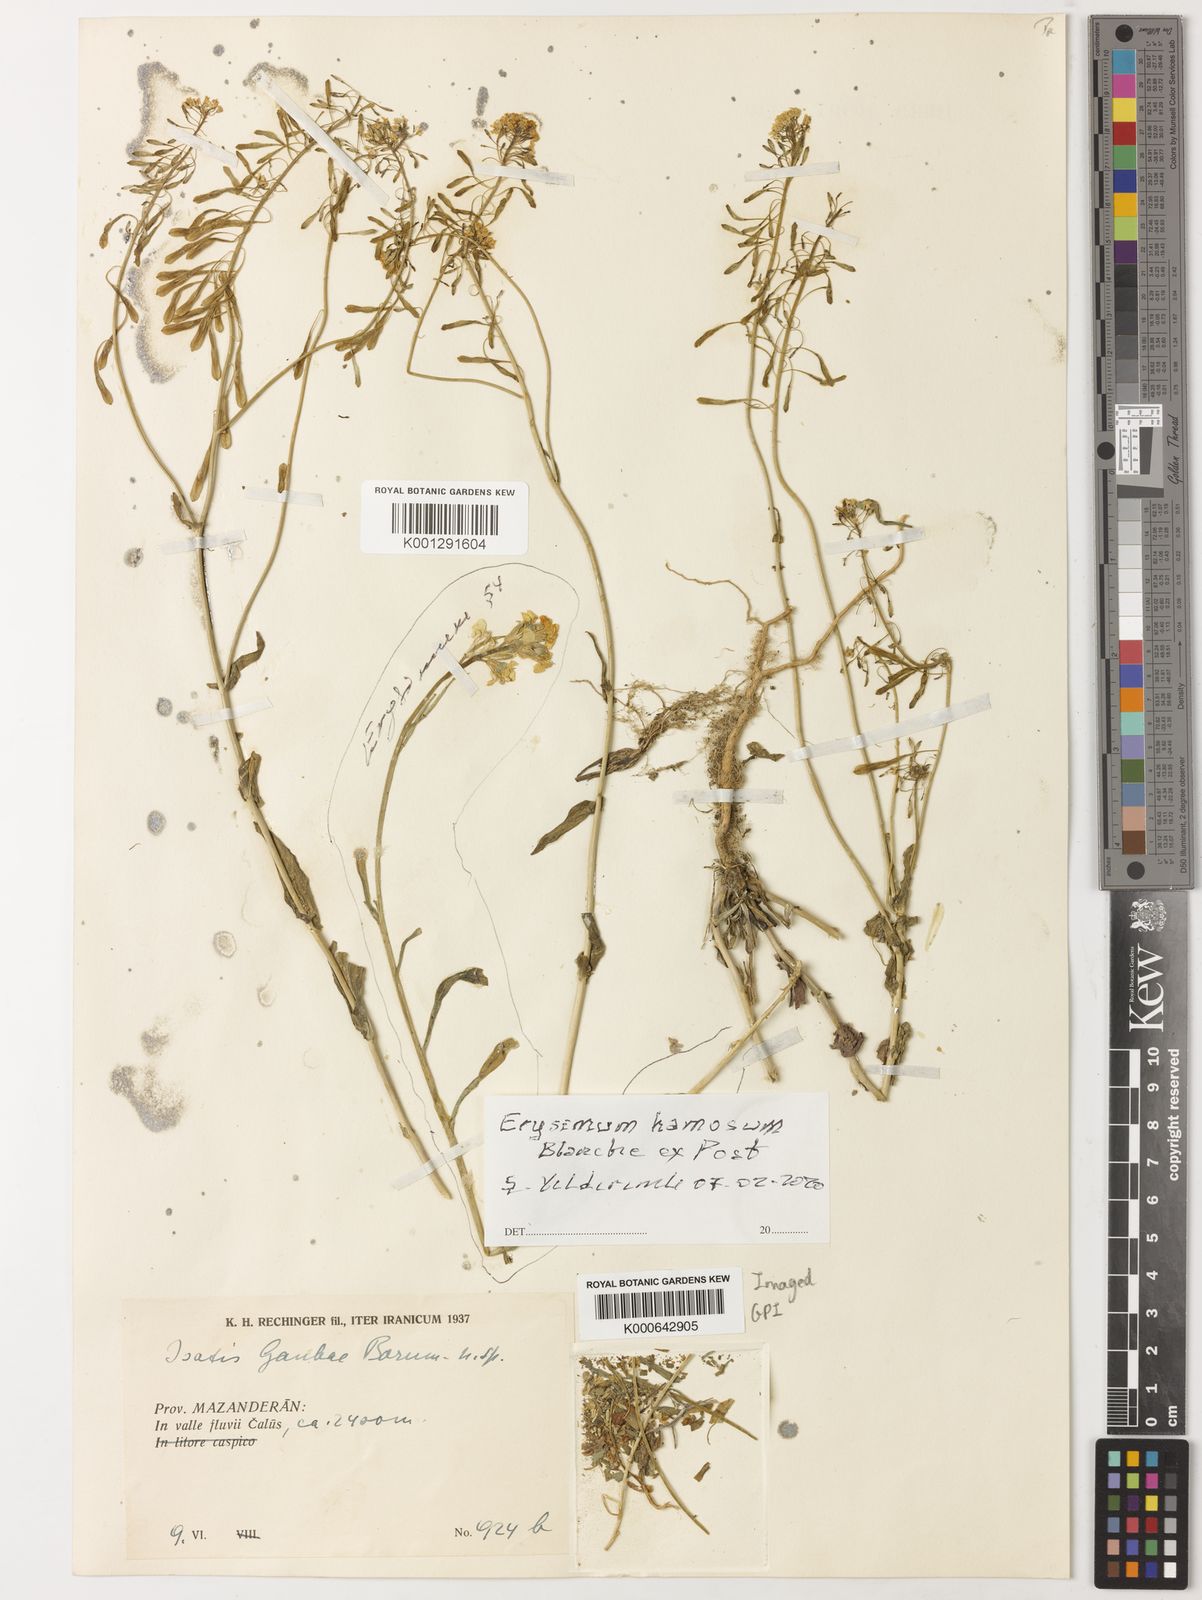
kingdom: Plantae
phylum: Tracheophyta
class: Magnoliopsida
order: Brassicales
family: Brassicaceae
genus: Isatis
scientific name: Isatis gaubae
